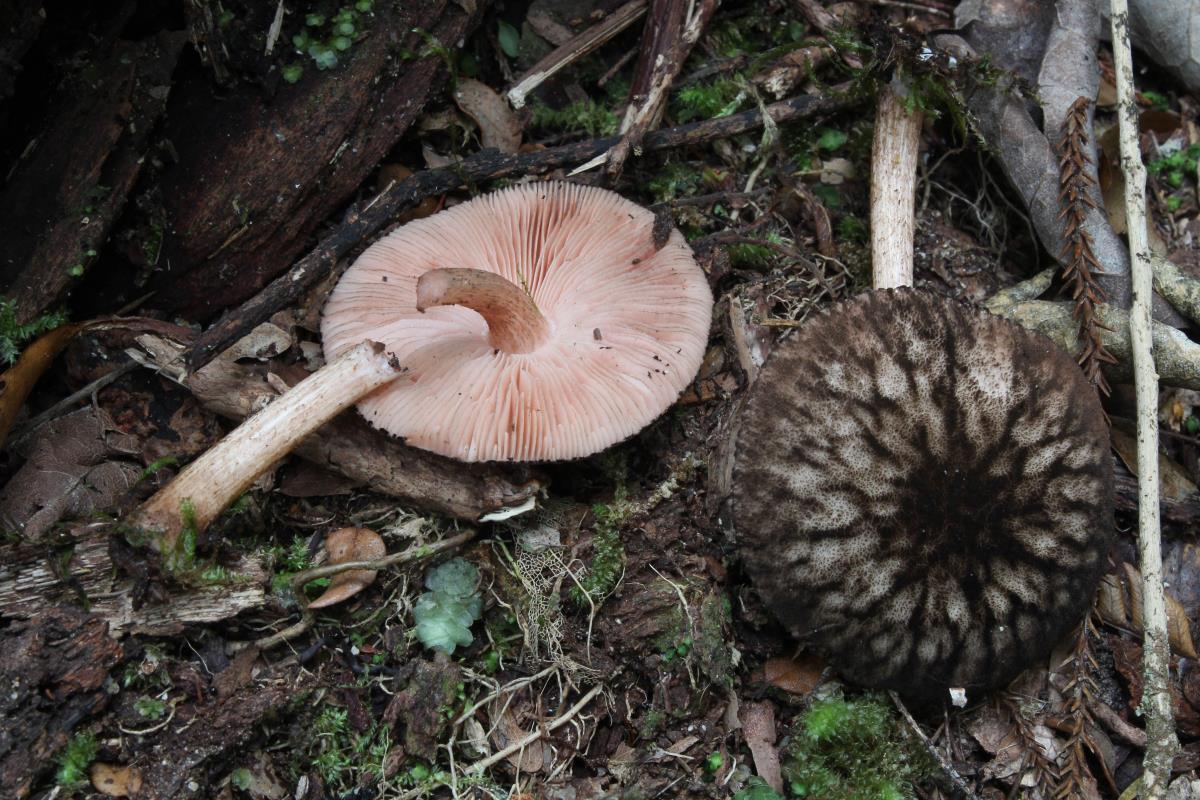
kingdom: Fungi
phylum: Basidiomycota
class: Agaricomycetes
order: Agaricales
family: Pluteaceae
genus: Pluteus
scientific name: Pluteus readiarum
